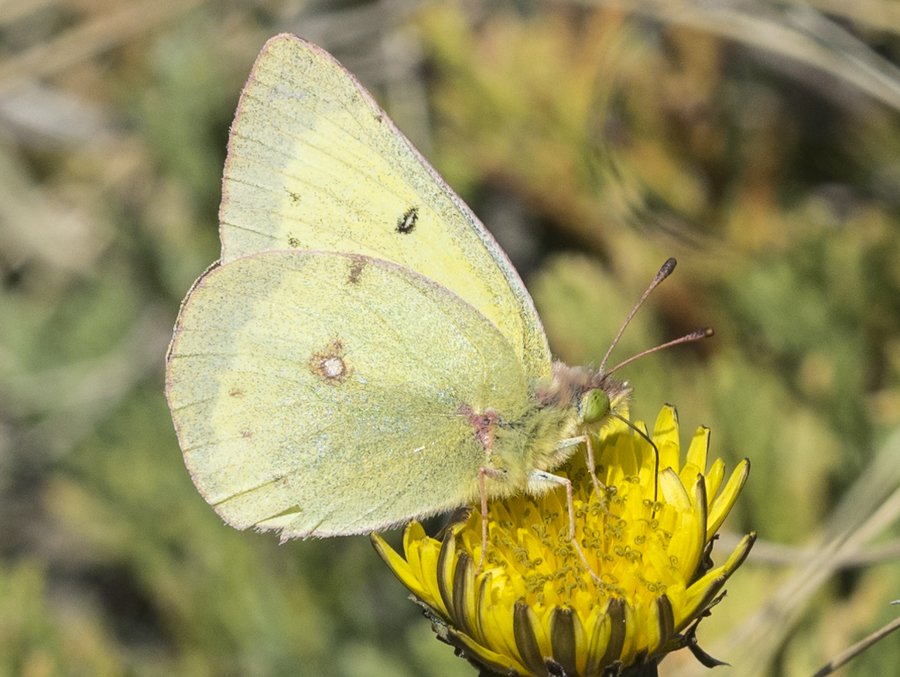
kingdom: Animalia
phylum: Arthropoda
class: Insecta
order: Lepidoptera
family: Pieridae
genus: Colias
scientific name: Colias philodice
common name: Clouded Sulphur
